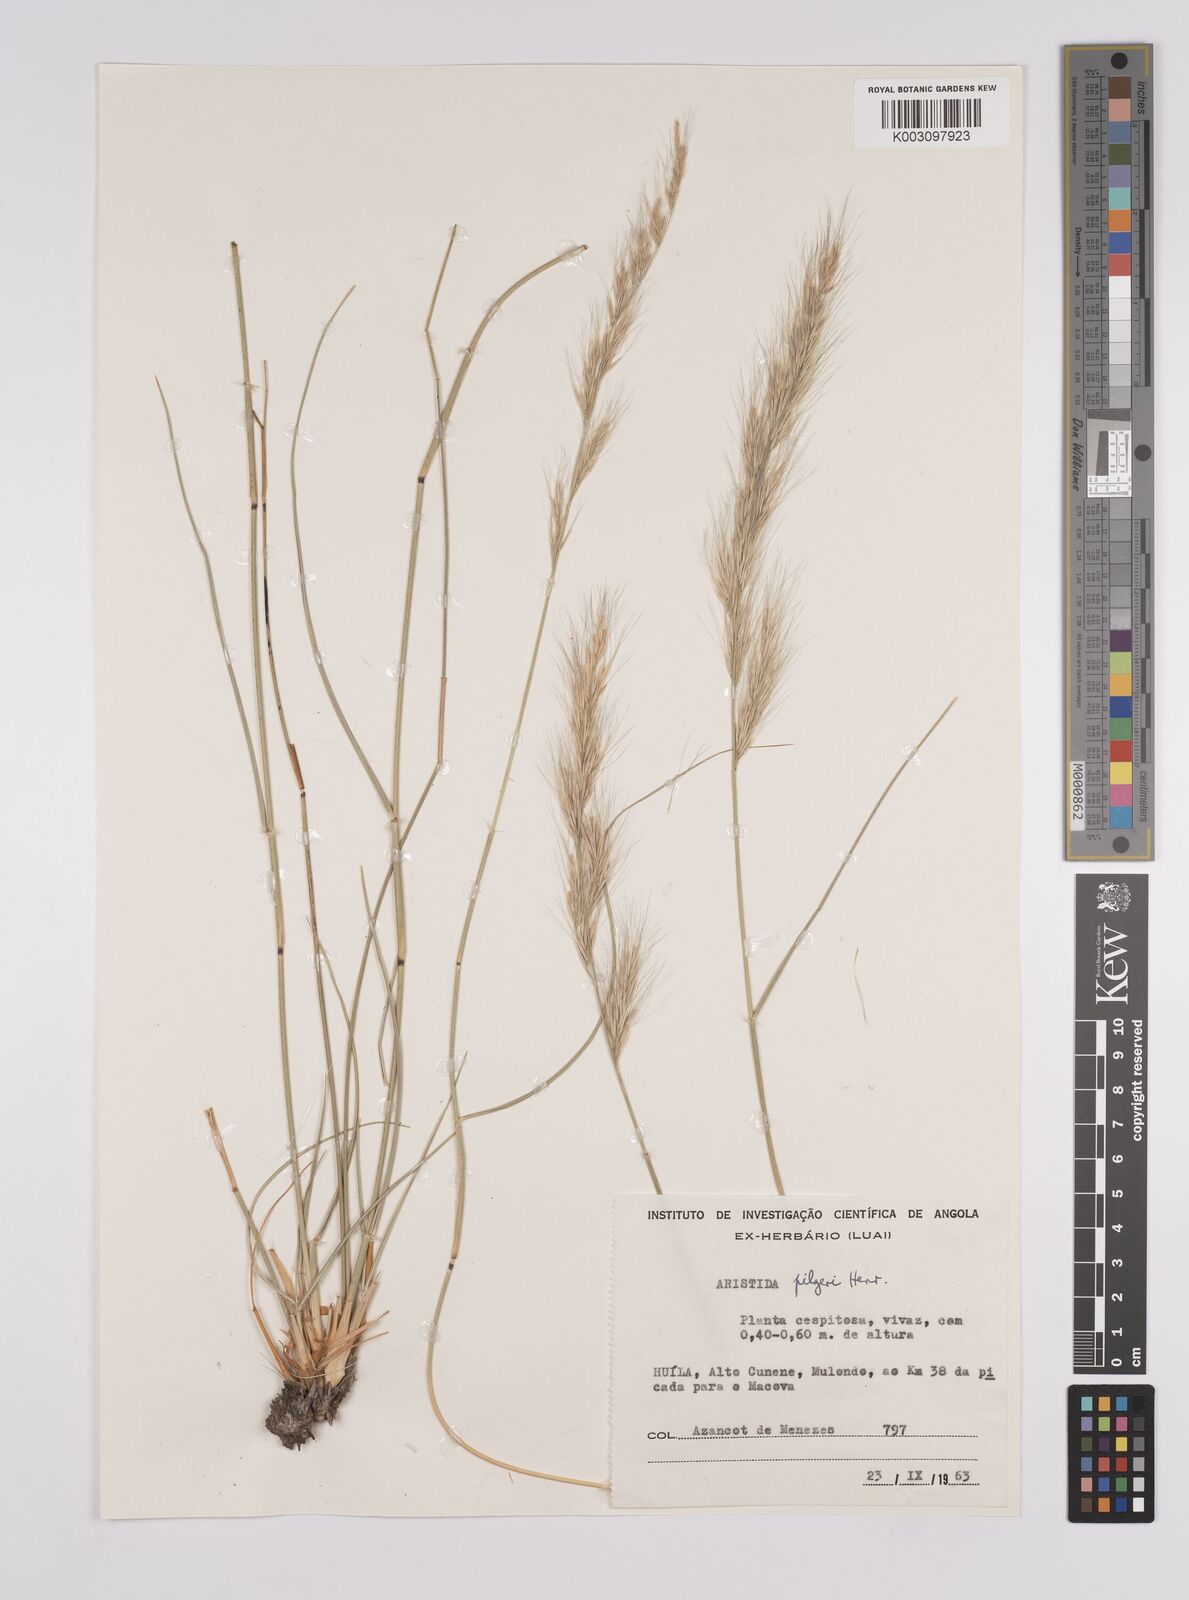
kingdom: Plantae
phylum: Tracheophyta
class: Liliopsida
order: Poales
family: Poaceae
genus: Aristida
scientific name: Aristida pilgeri
